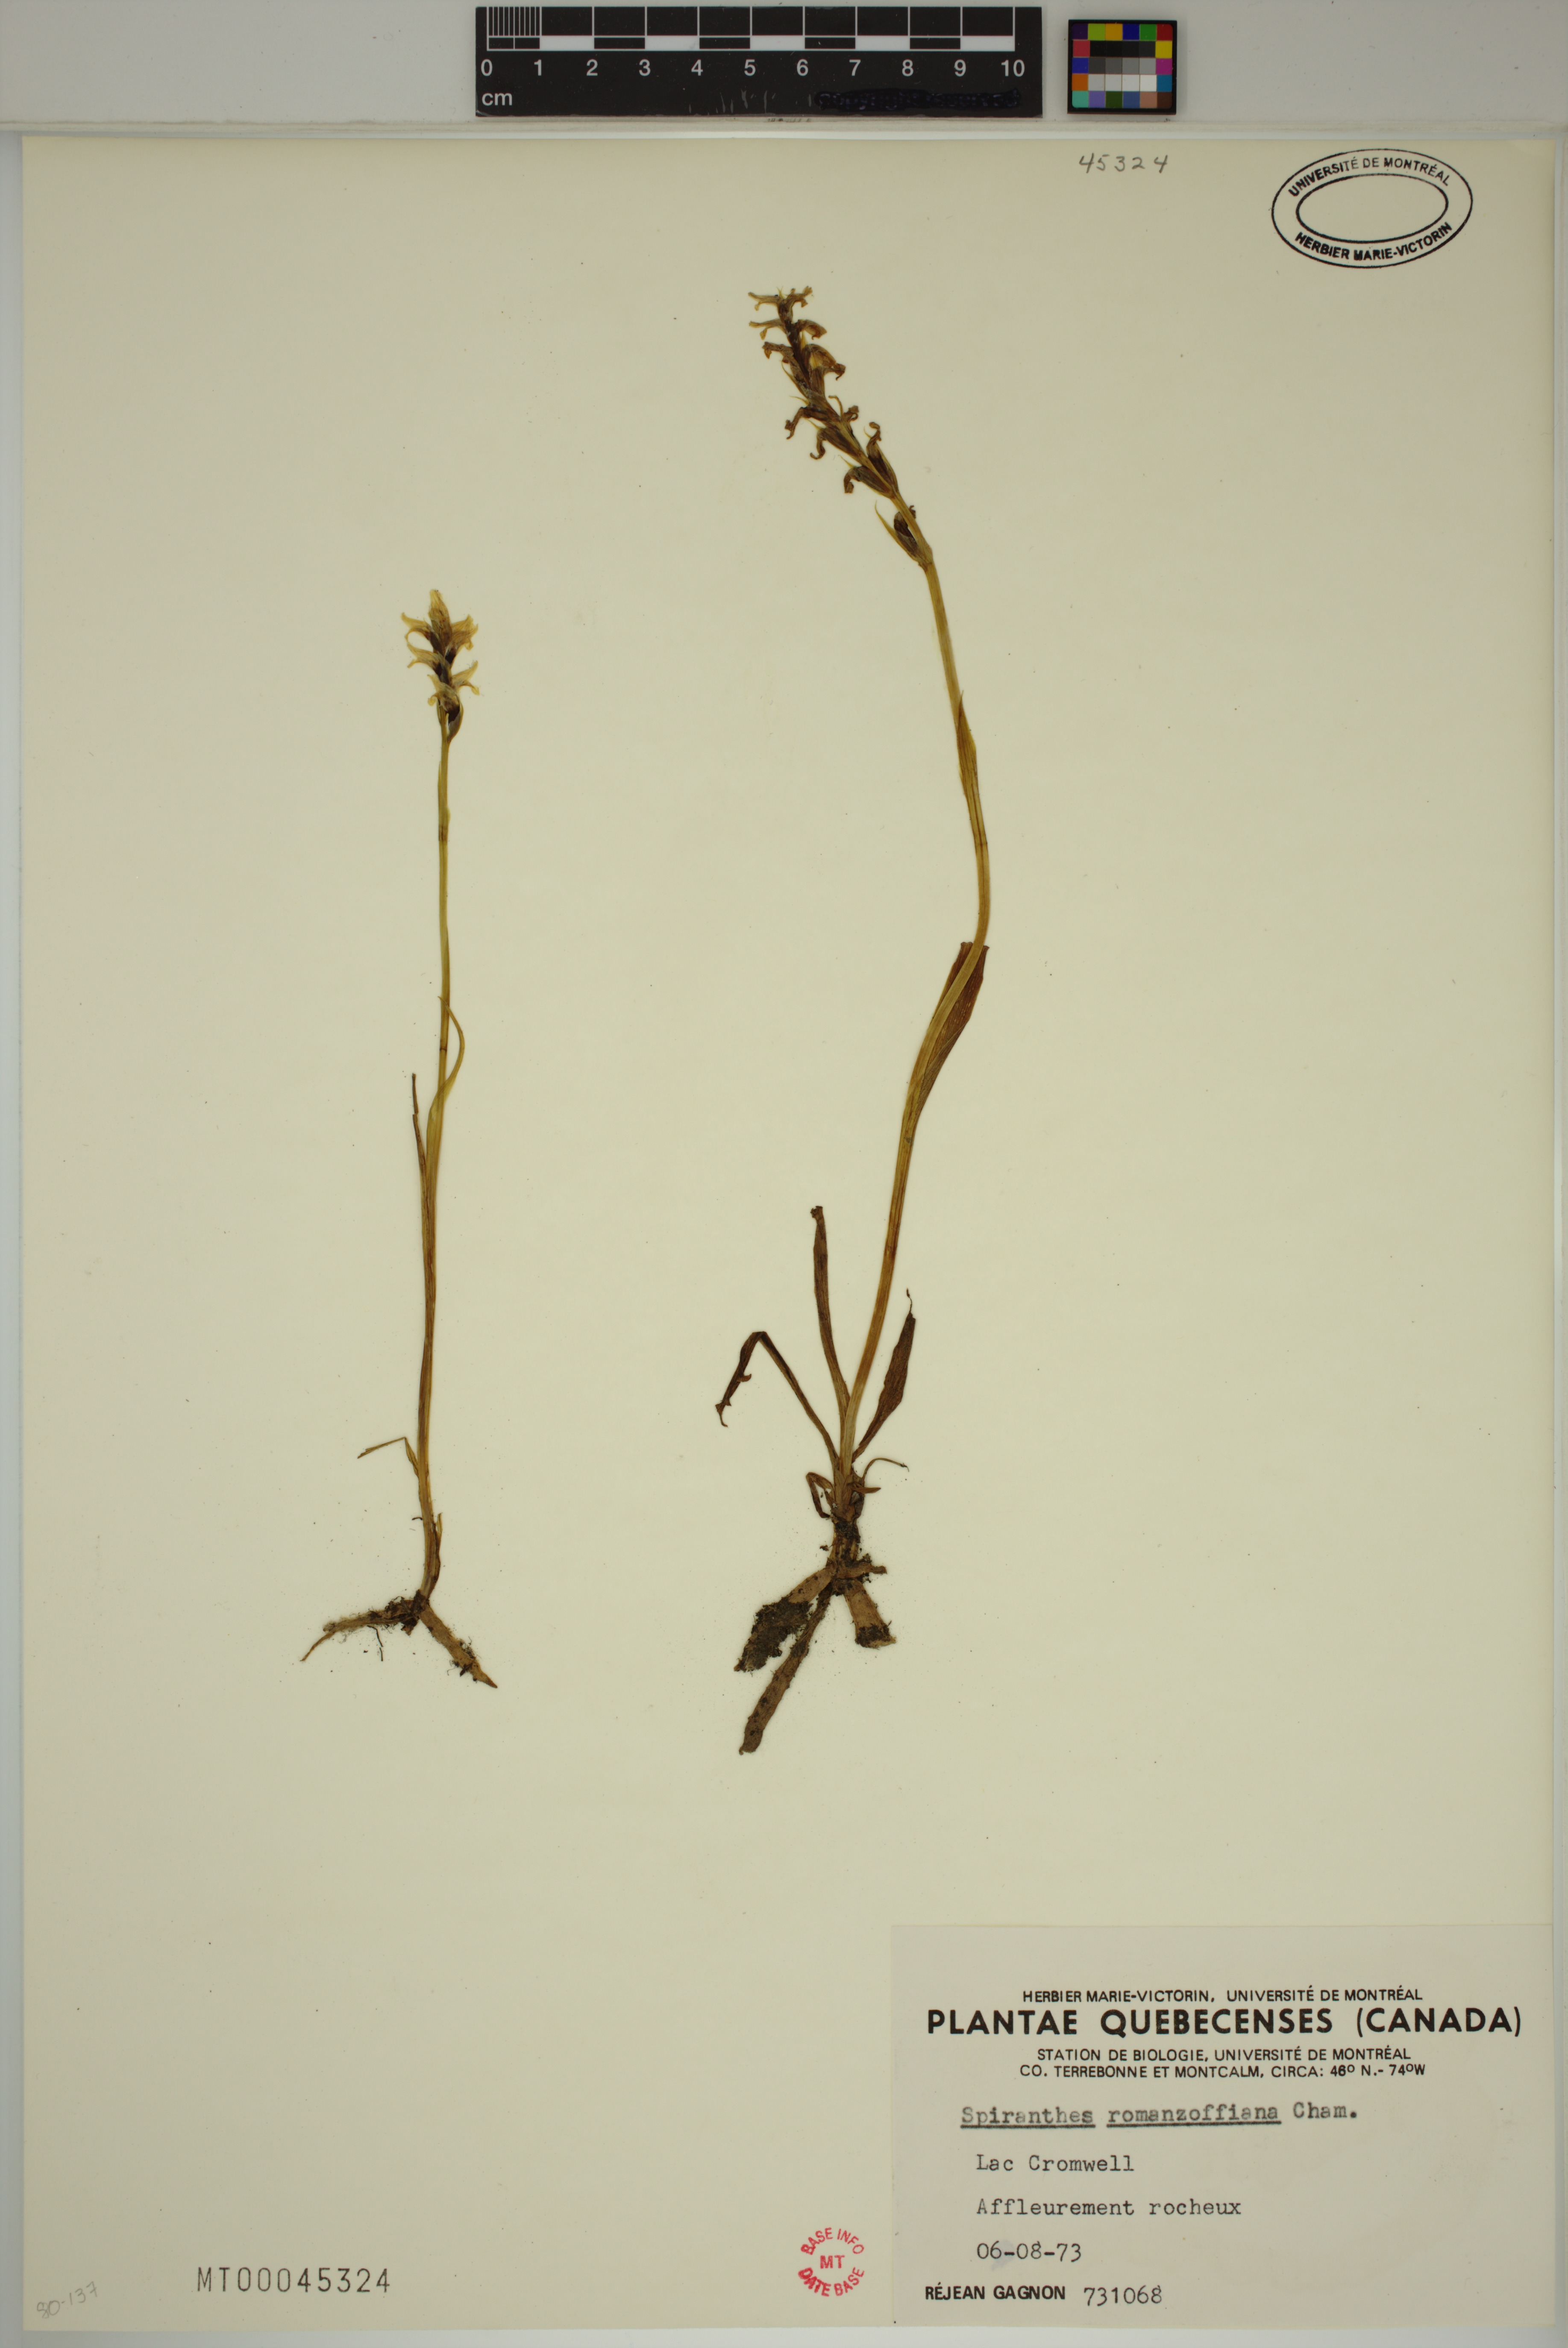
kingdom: Plantae
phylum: Tracheophyta
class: Liliopsida
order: Asparagales
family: Orchidaceae
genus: Spiranthes
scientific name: Spiranthes romanzoffiana
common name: Irish lady's-tresses
